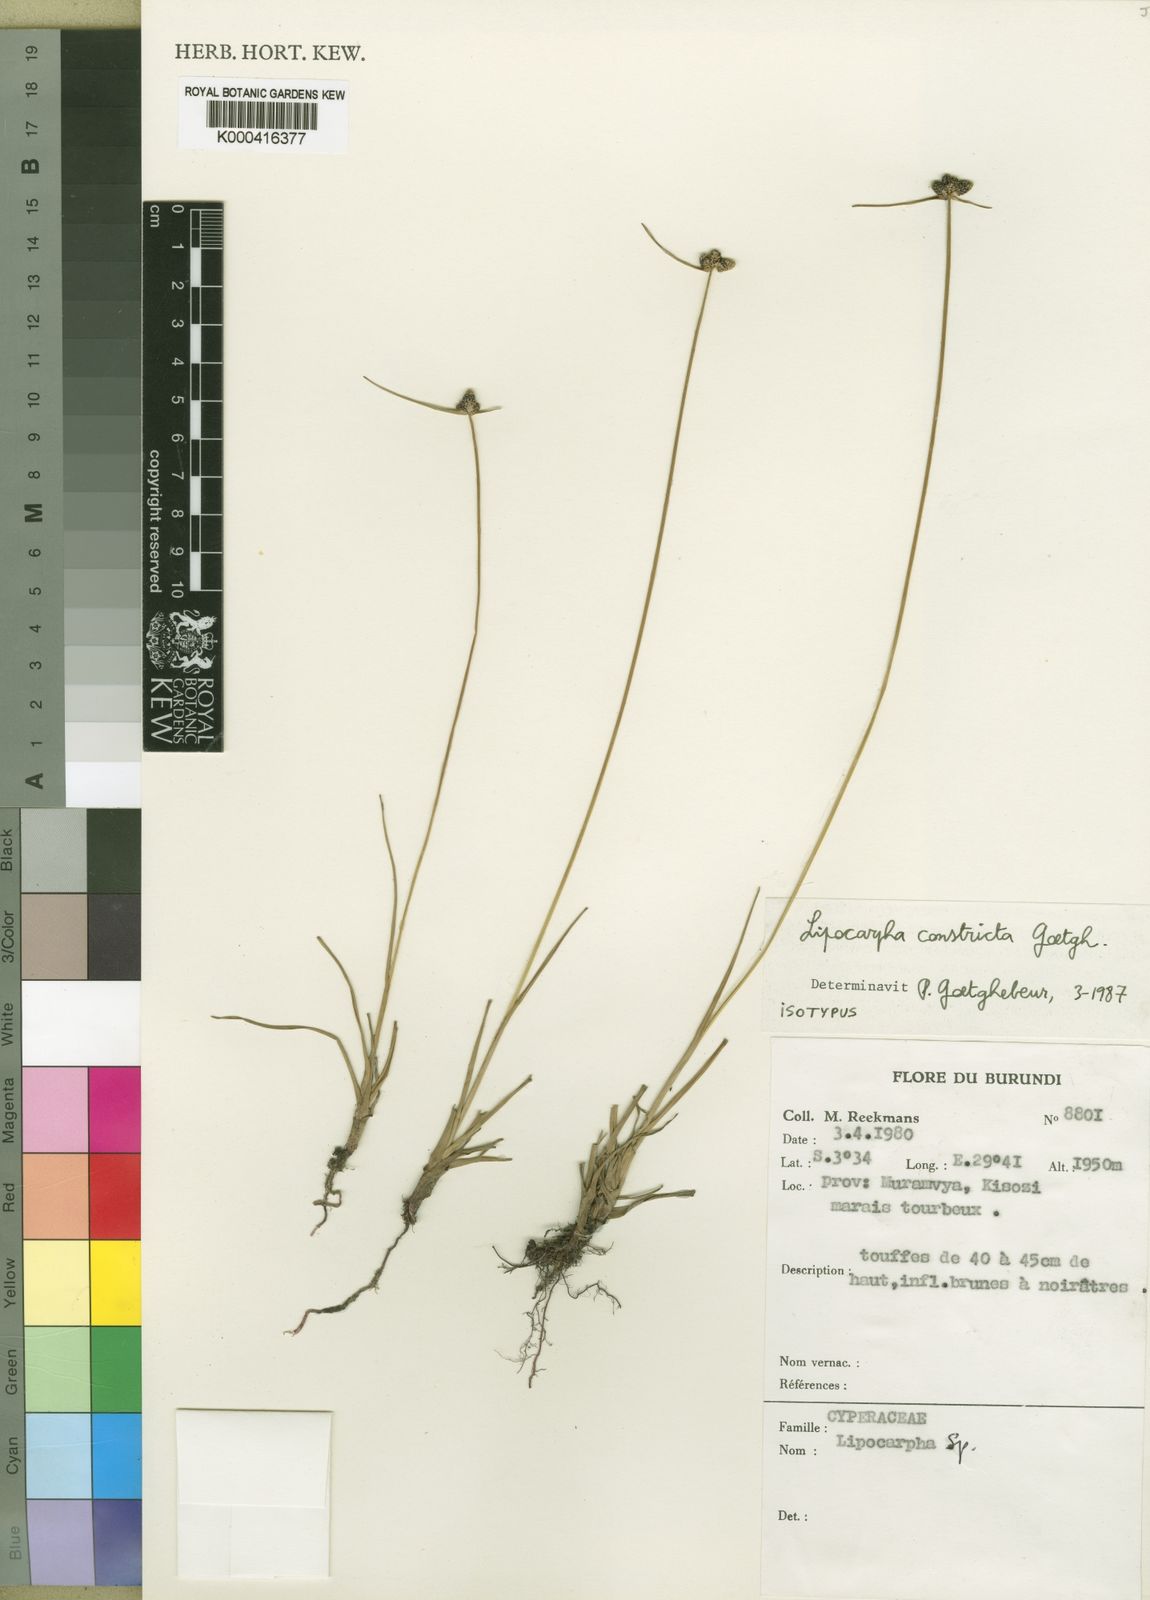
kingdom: Plantae
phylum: Tracheophyta
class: Liliopsida
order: Poales
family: Cyperaceae
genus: Cyperus
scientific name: Cyperus constrictus
